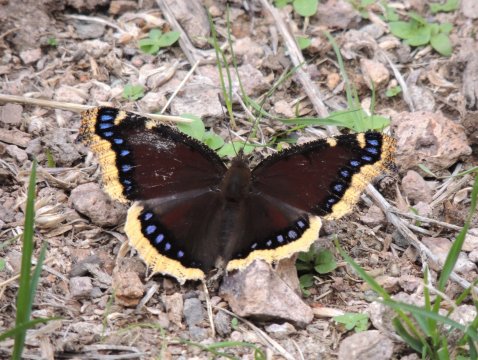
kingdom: Animalia
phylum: Arthropoda
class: Insecta
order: Lepidoptera
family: Nymphalidae
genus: Nymphalis
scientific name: Nymphalis antiopa
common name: Mourning Cloak
